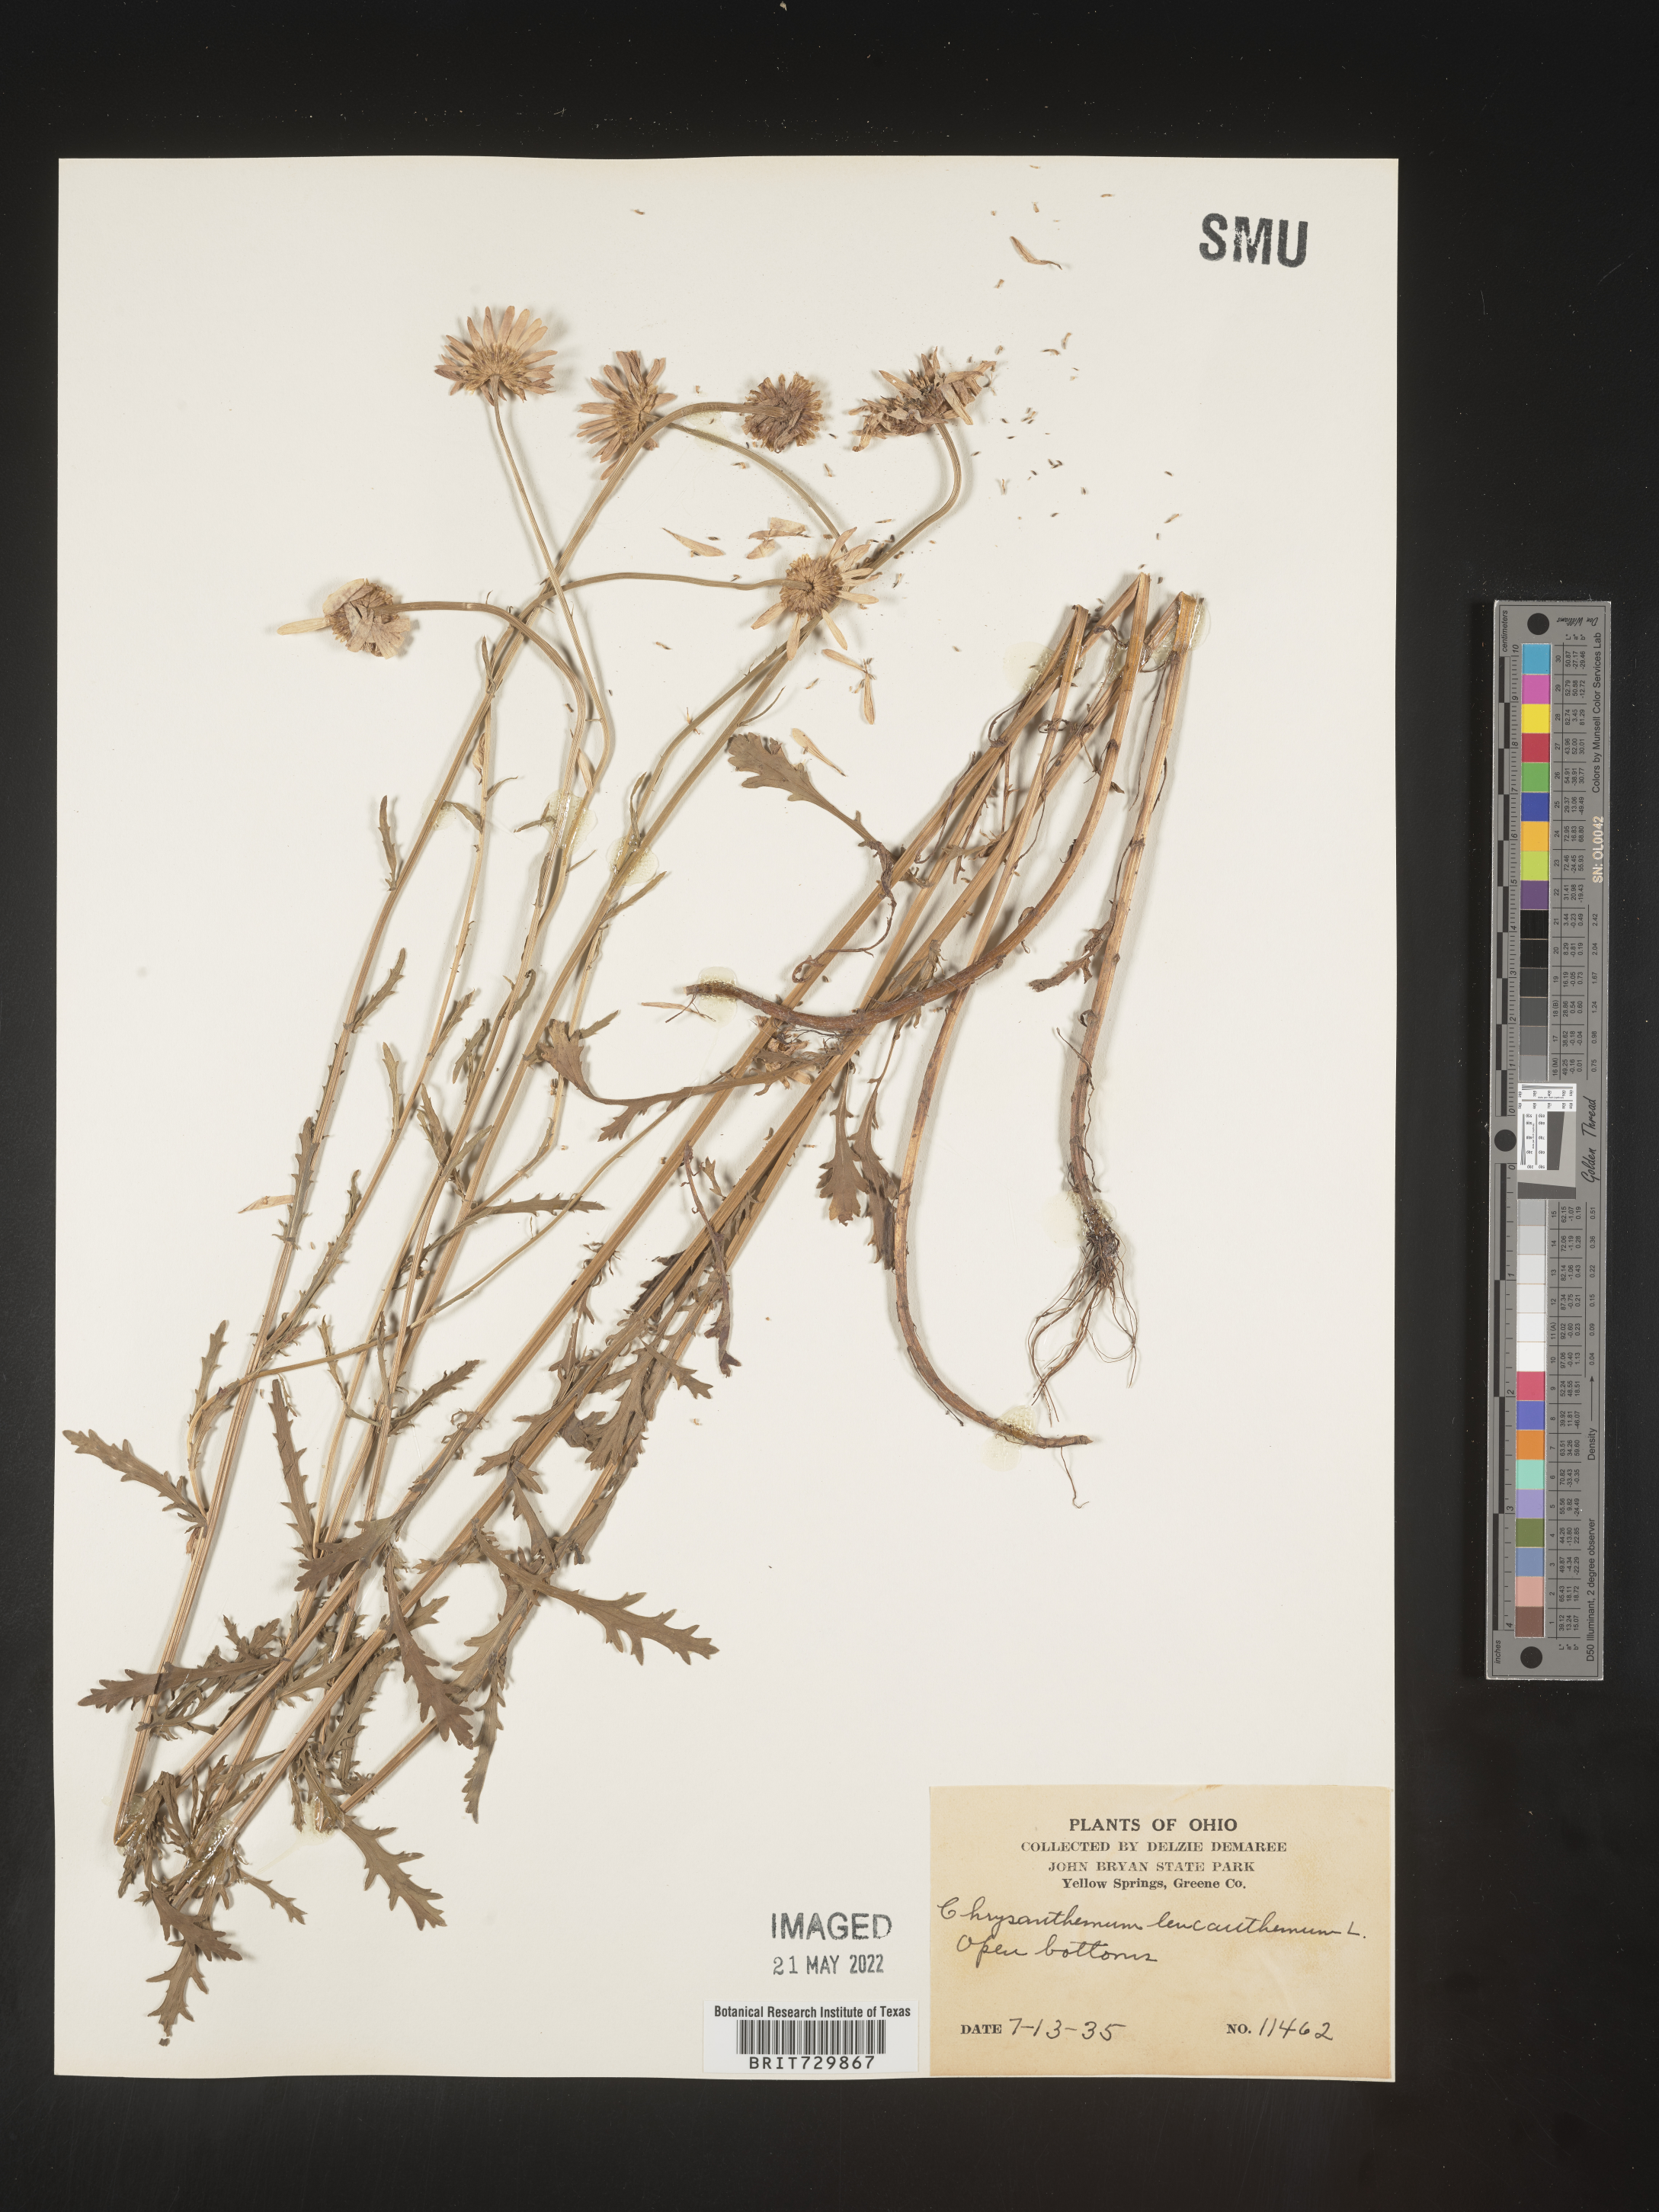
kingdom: Plantae
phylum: Tracheophyta
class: Magnoliopsida
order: Asterales
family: Asteraceae
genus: Leucanthemum
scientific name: Leucanthemum vulgare
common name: Oxeye daisy
